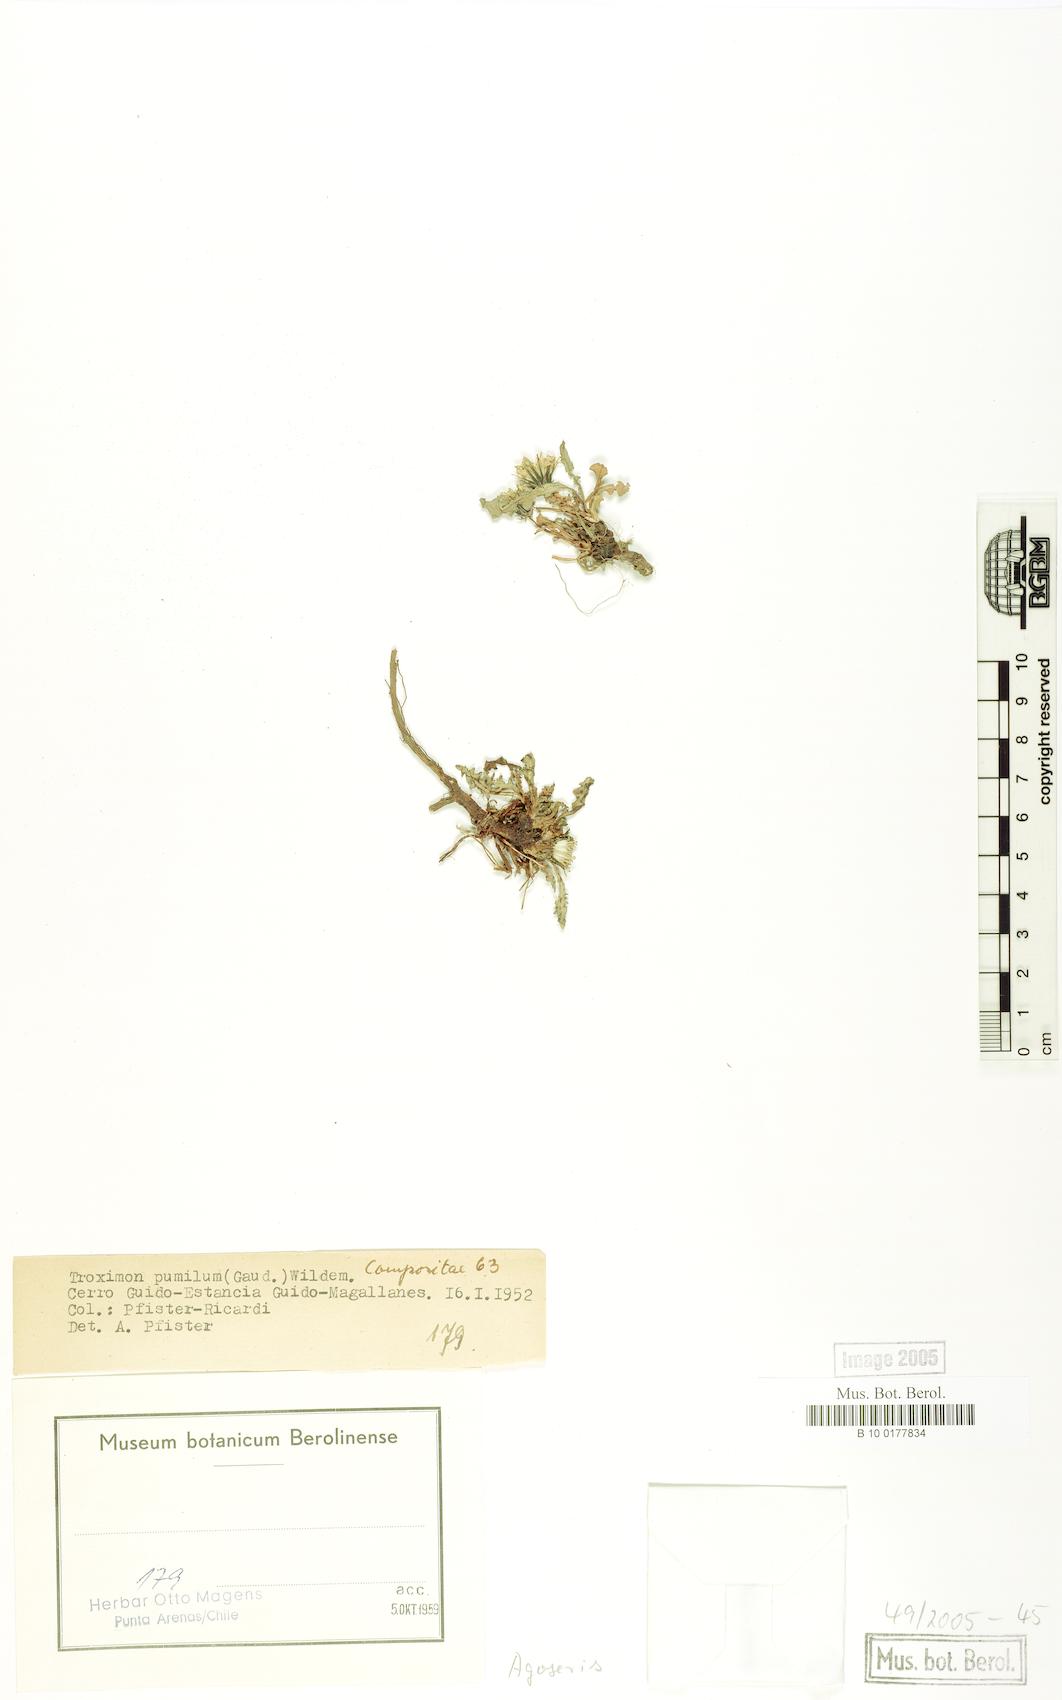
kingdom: Plantae
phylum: Tracheophyta
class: Magnoliopsida
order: Asterales
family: Asteraceae
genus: Agoseris
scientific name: Agoseris glauca
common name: Prairie agoseris
